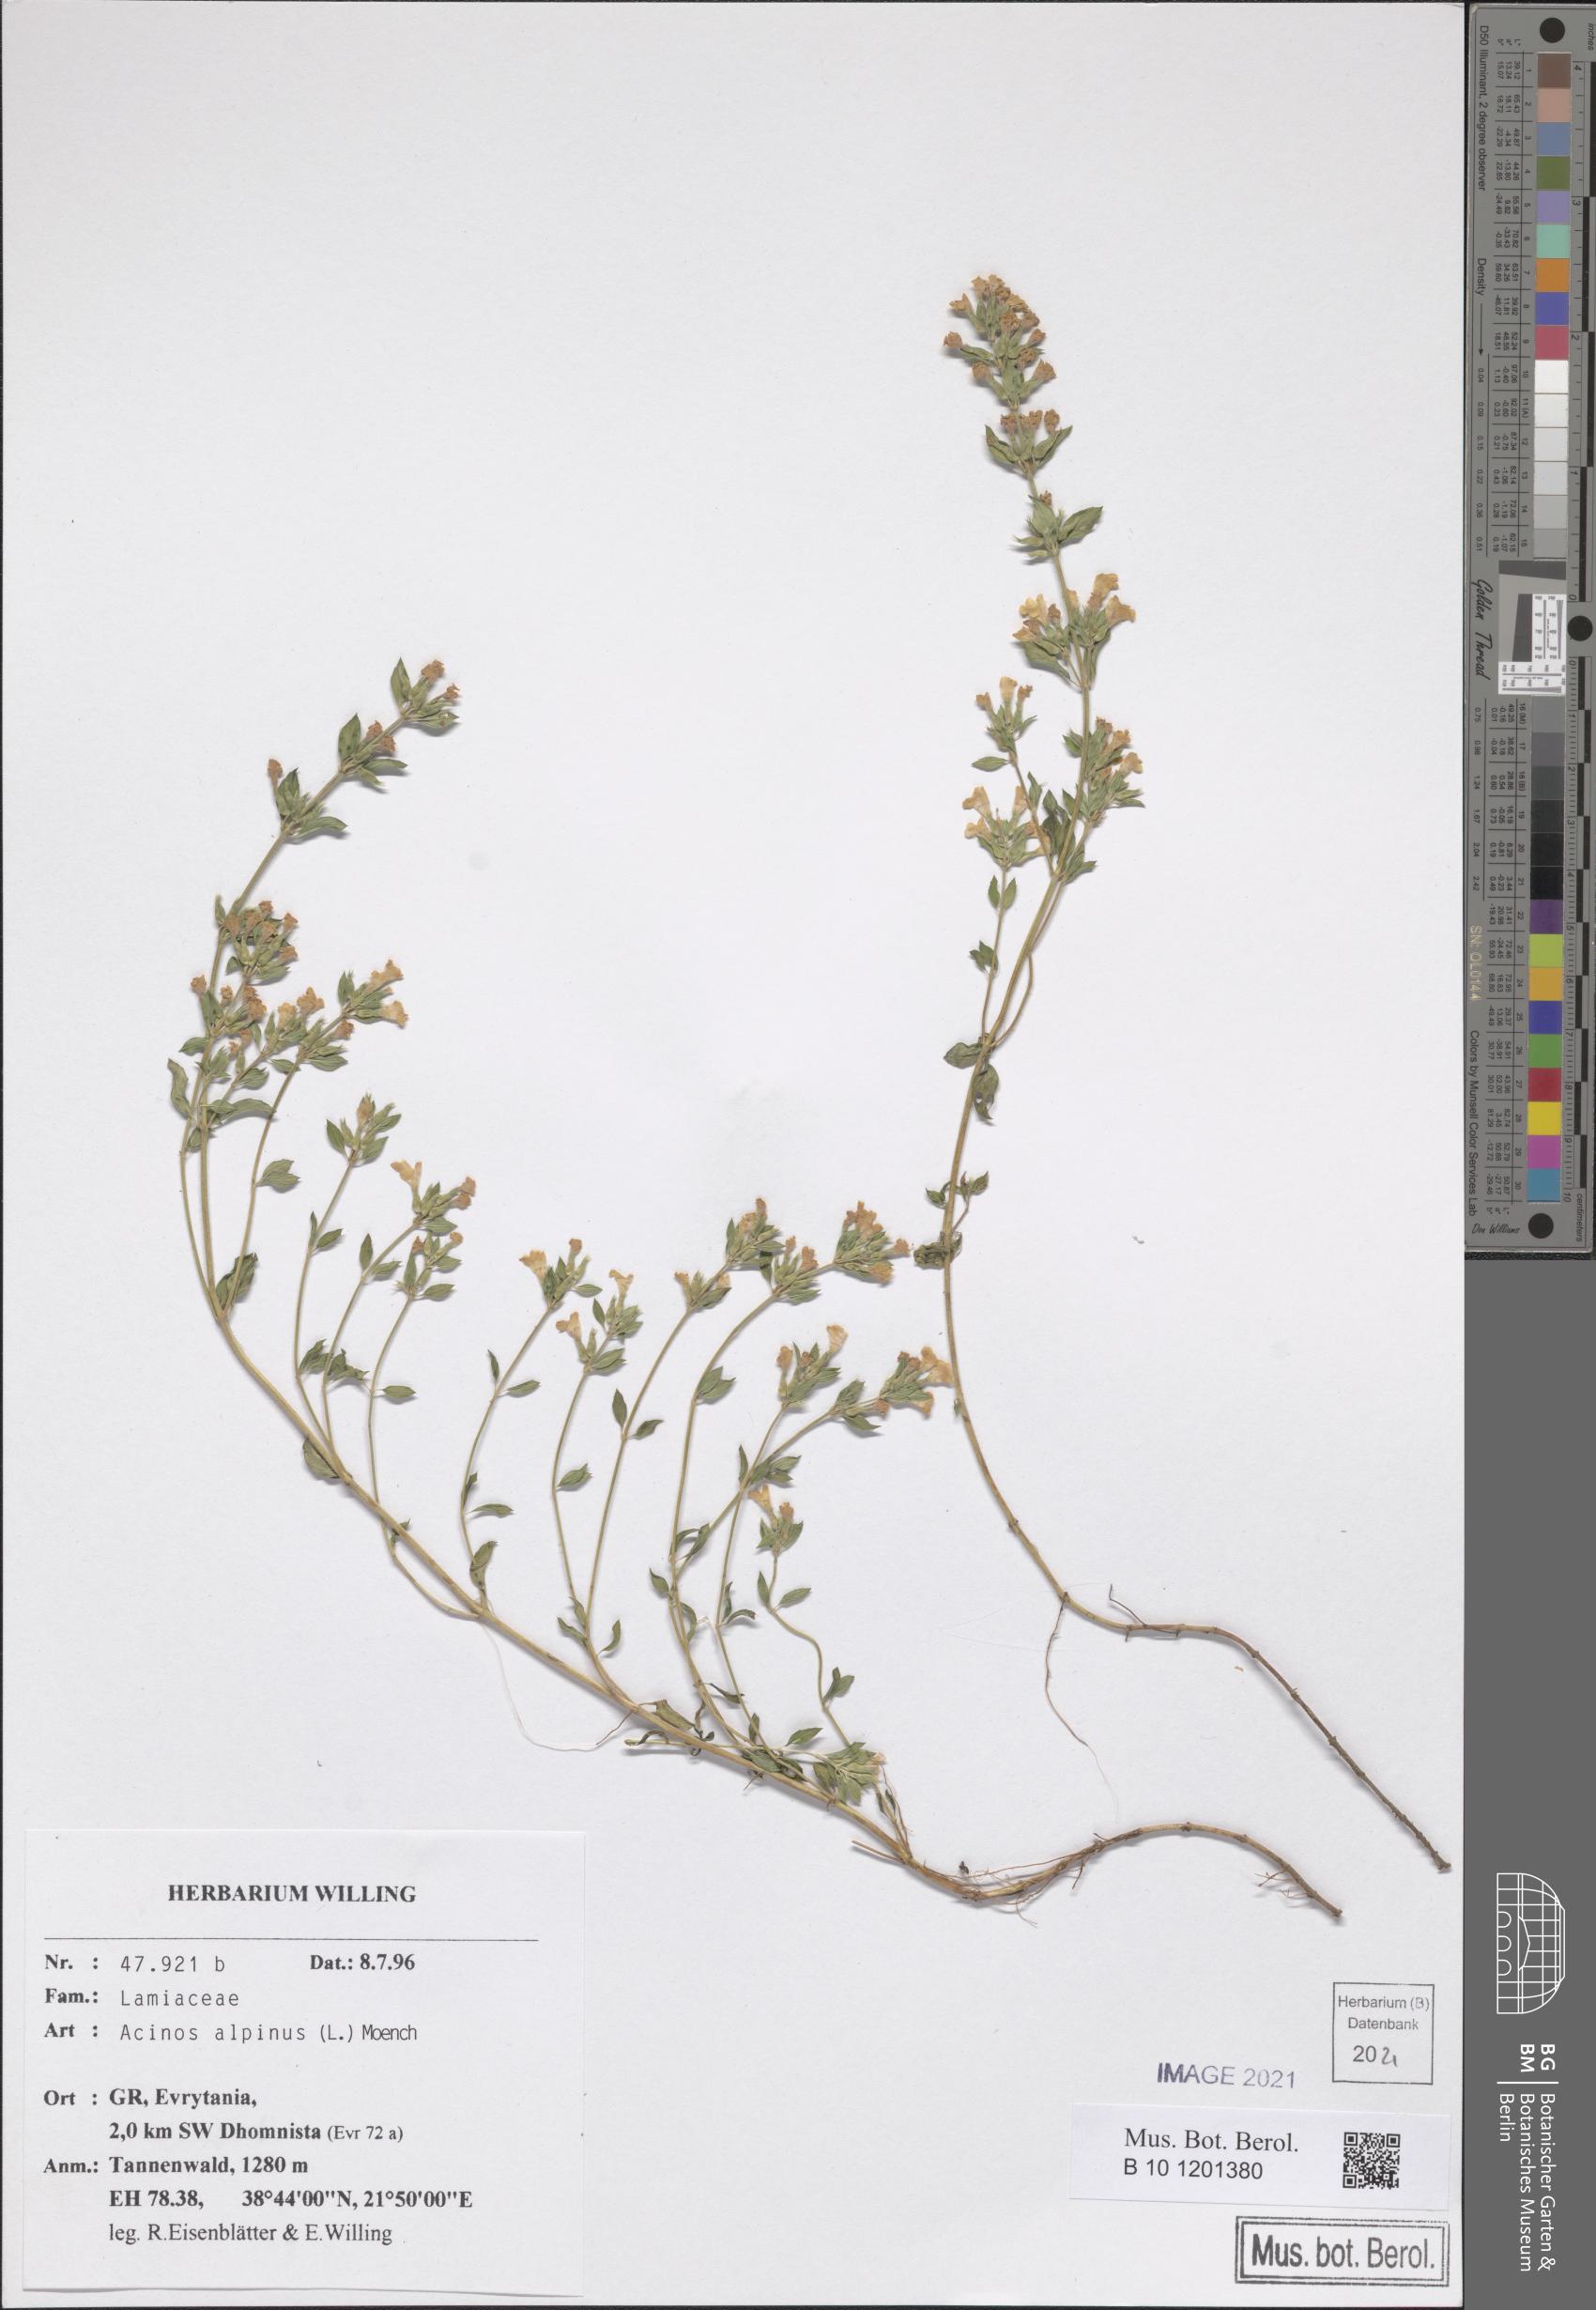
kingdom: Plantae
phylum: Tracheophyta
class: Magnoliopsida
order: Lamiales
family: Lamiaceae
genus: Clinopodium
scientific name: Clinopodium alpinum
